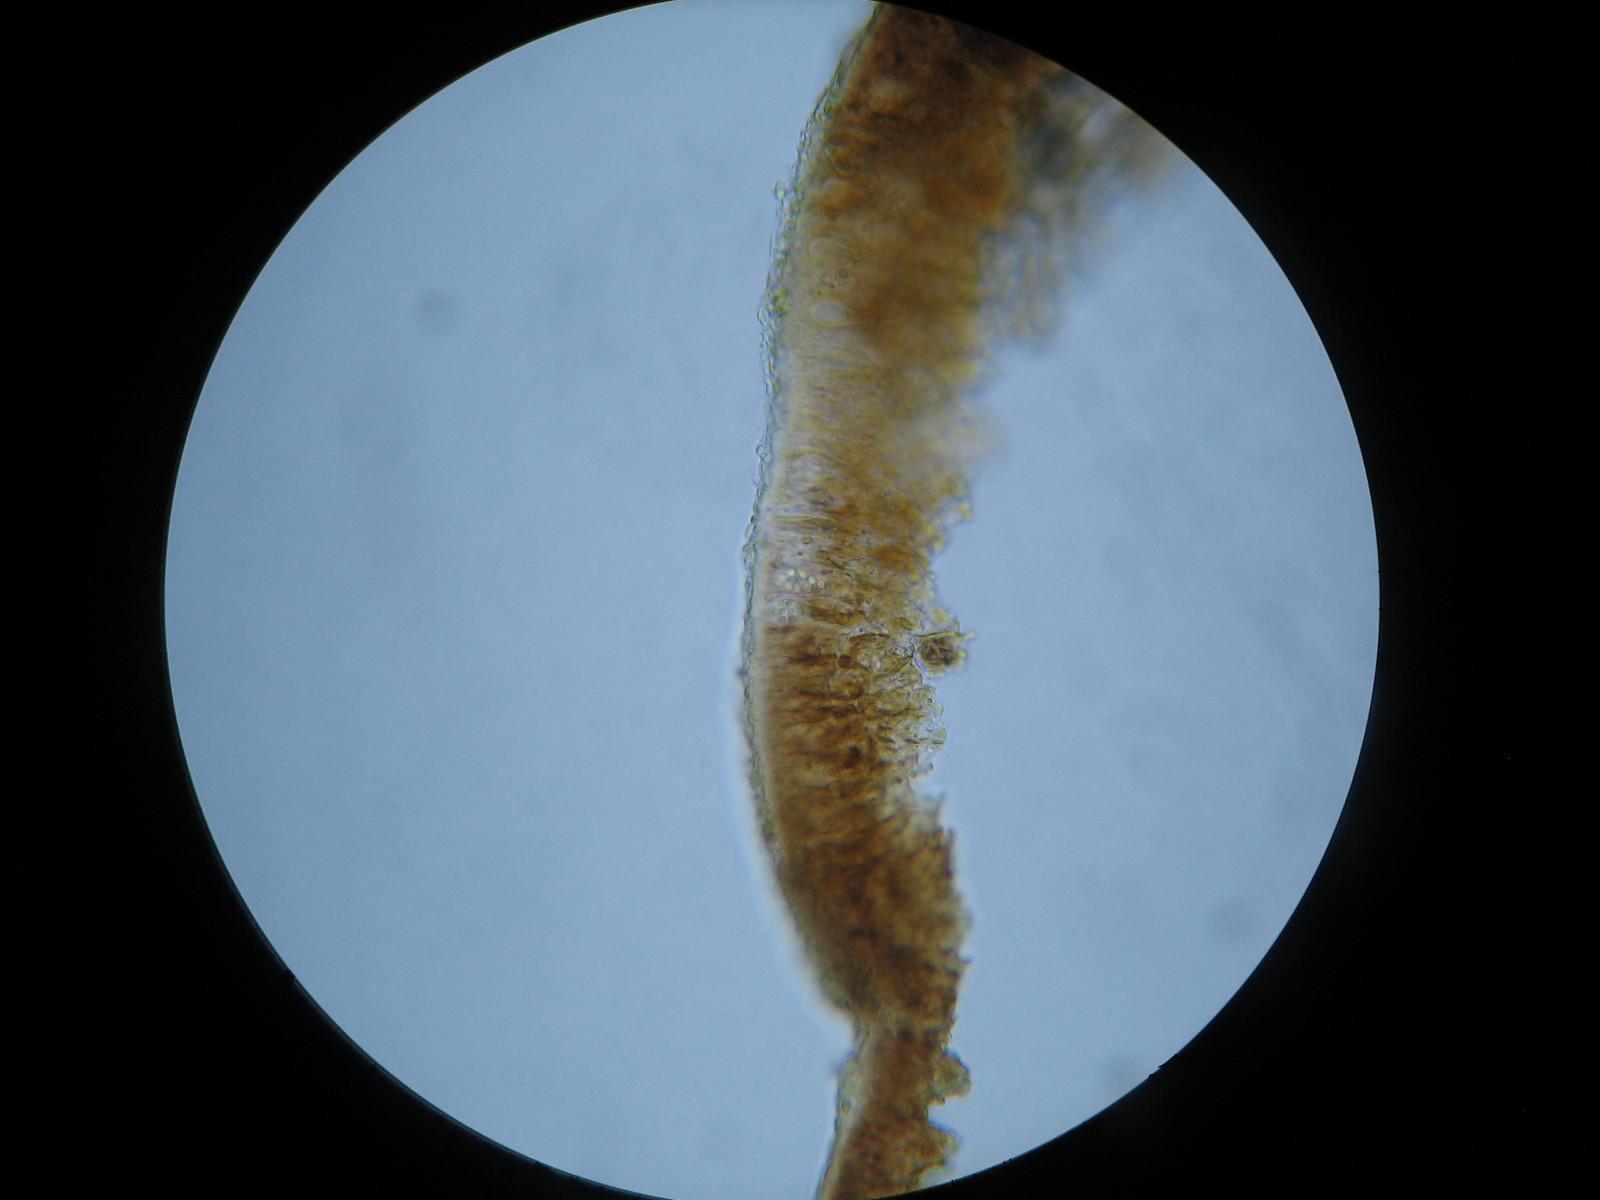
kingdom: Fungi
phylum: Ascomycota
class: Arthoniomycetes
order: Arthoniales
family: Arthoniaceae
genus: Diarthonis
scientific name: Diarthonis spadicea
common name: skygge-pletlav
